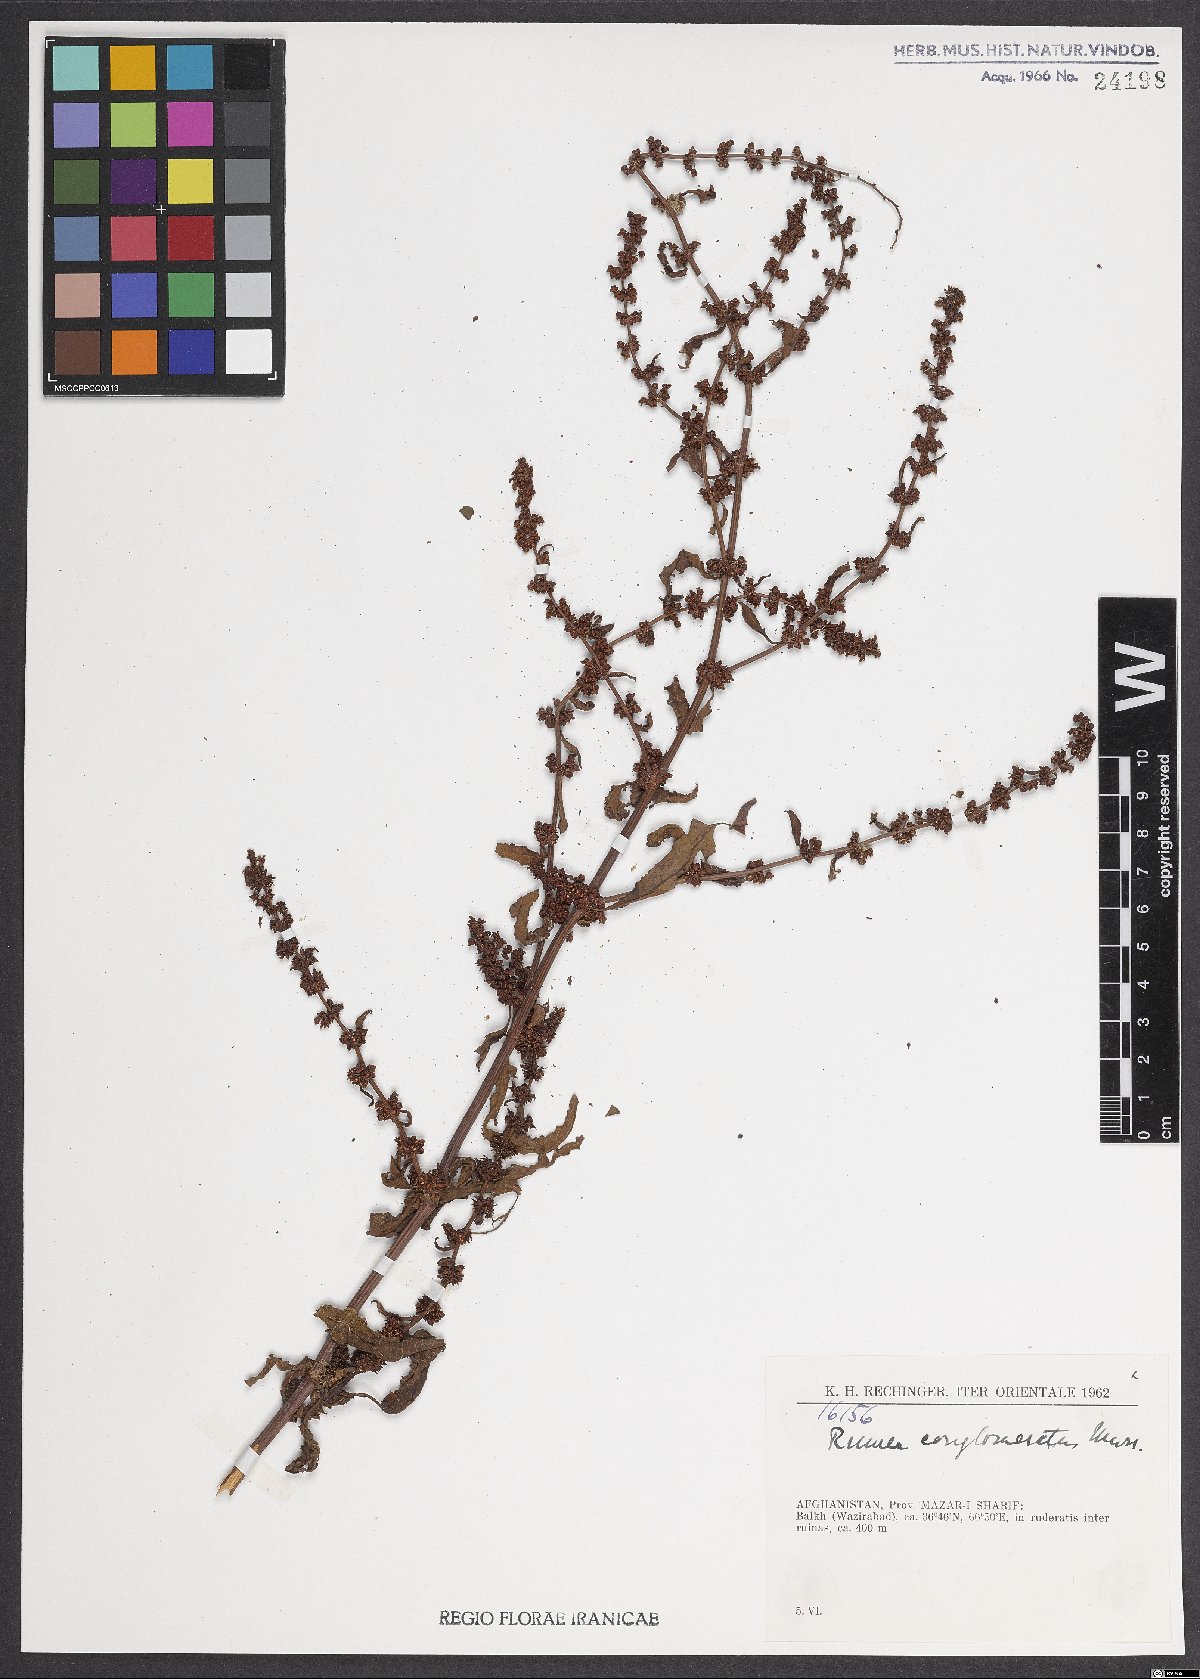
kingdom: Plantae
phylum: Tracheophyta
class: Magnoliopsida
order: Caryophyllales
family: Polygonaceae
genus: Rumex
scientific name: Rumex conglomeratus
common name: Clustered dock
